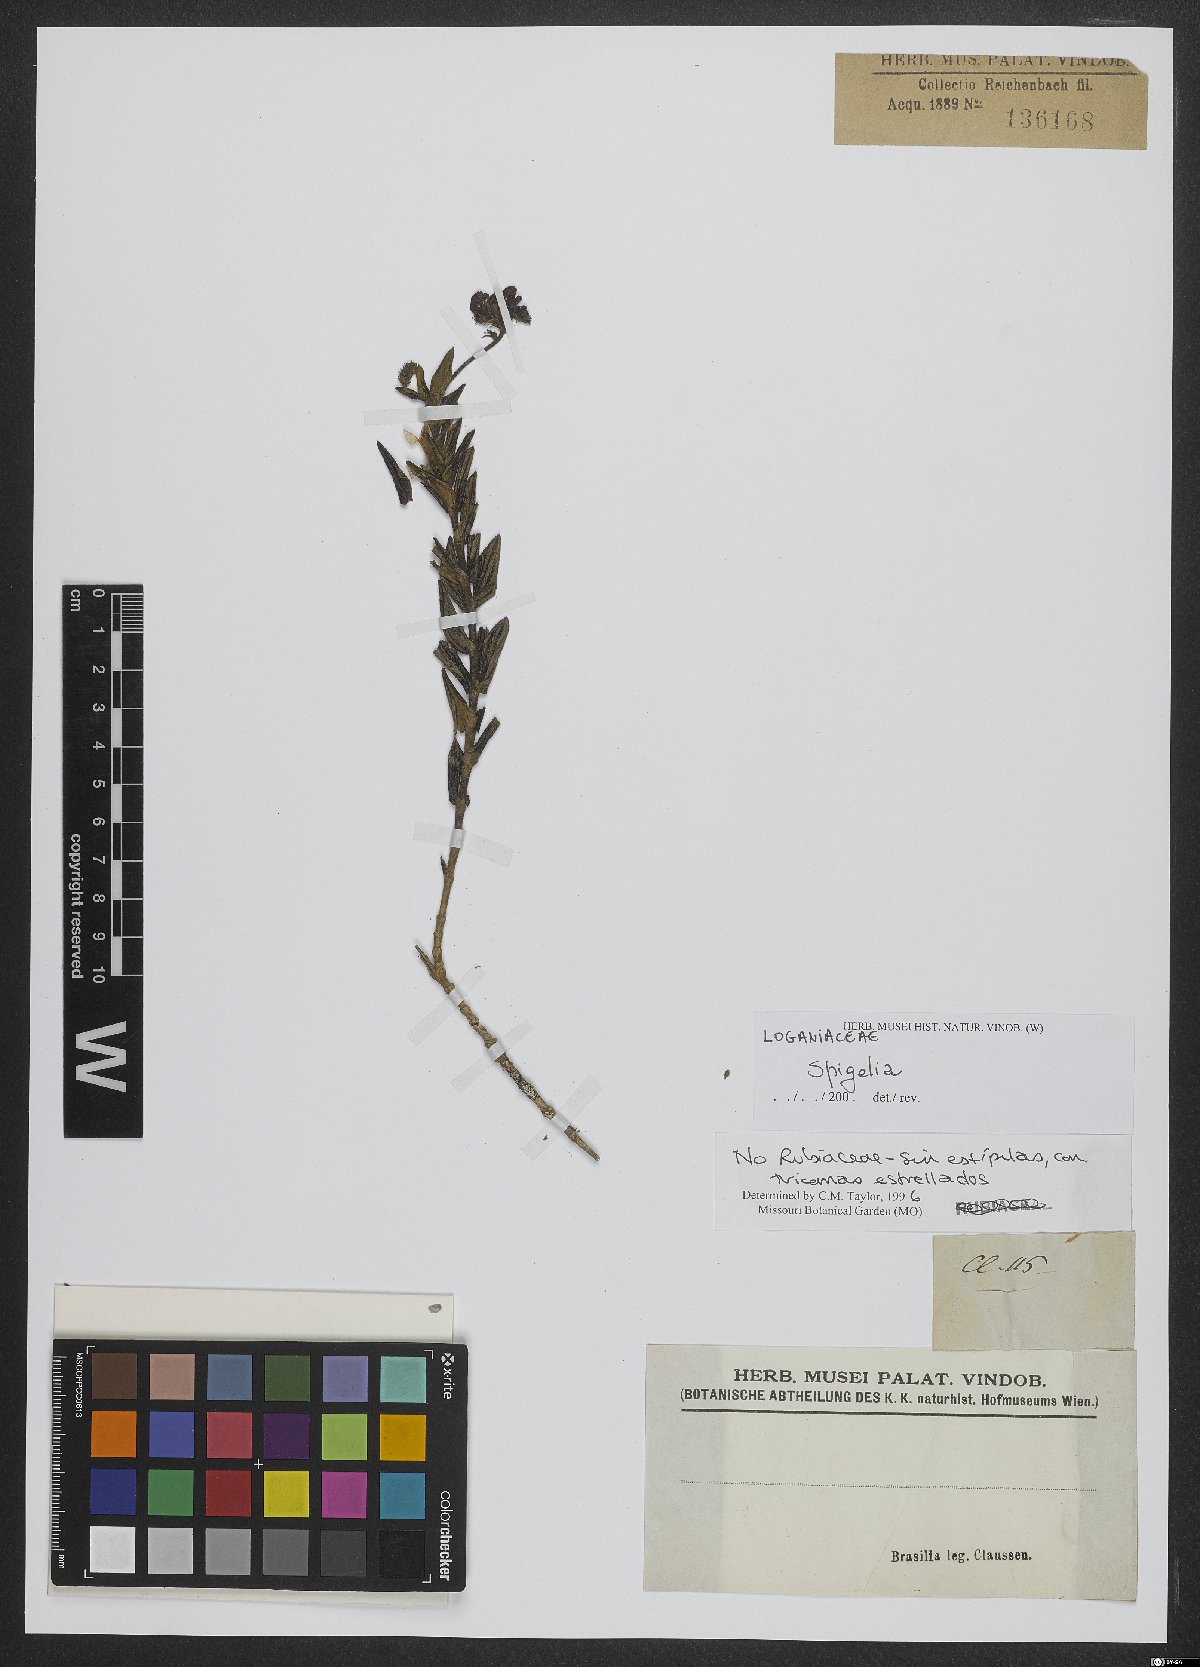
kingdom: Plantae
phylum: Tracheophyta
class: Magnoliopsida
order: Gentianales
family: Loganiaceae
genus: Spigelia
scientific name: Spigelia
